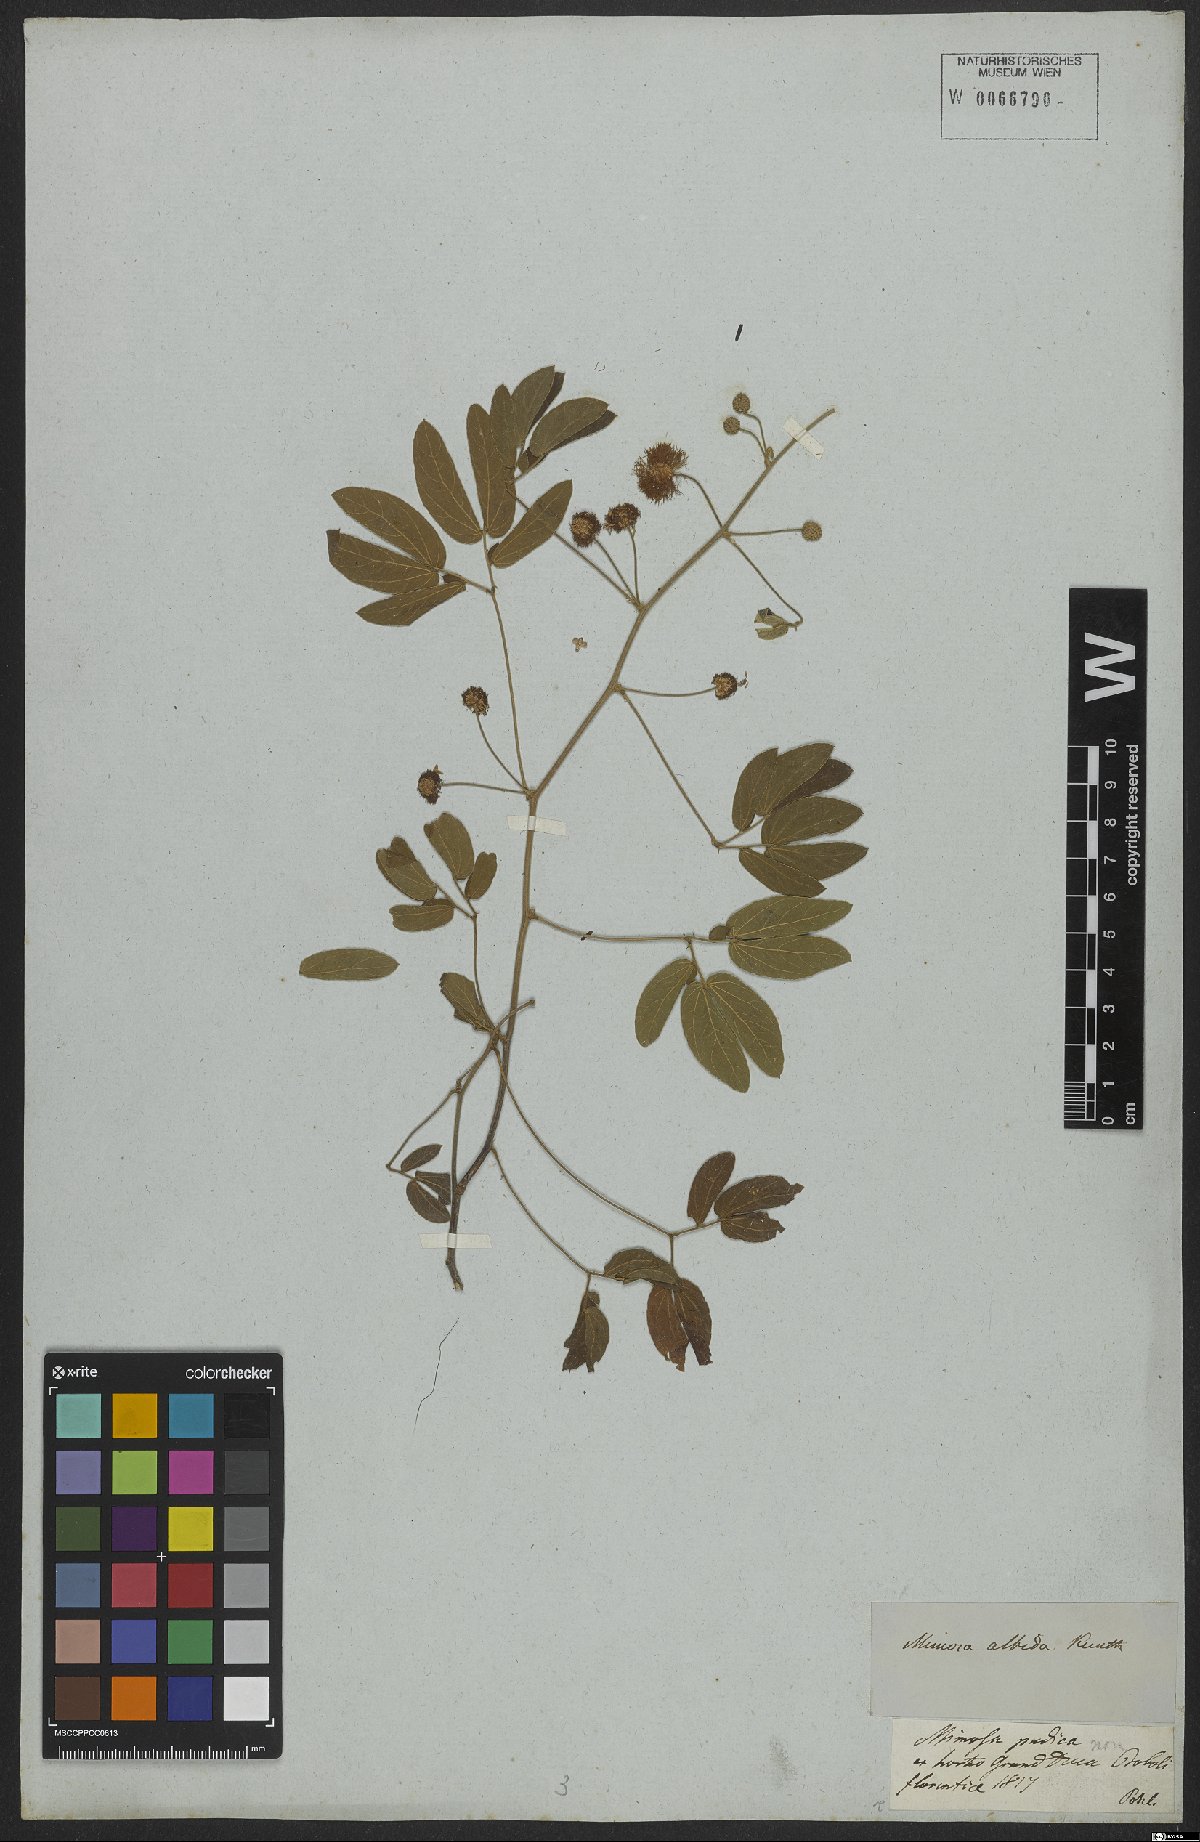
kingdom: Plantae
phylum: Tracheophyta
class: Magnoliopsida
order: Fabales
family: Fabaceae
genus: Inga
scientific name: Inga alba
